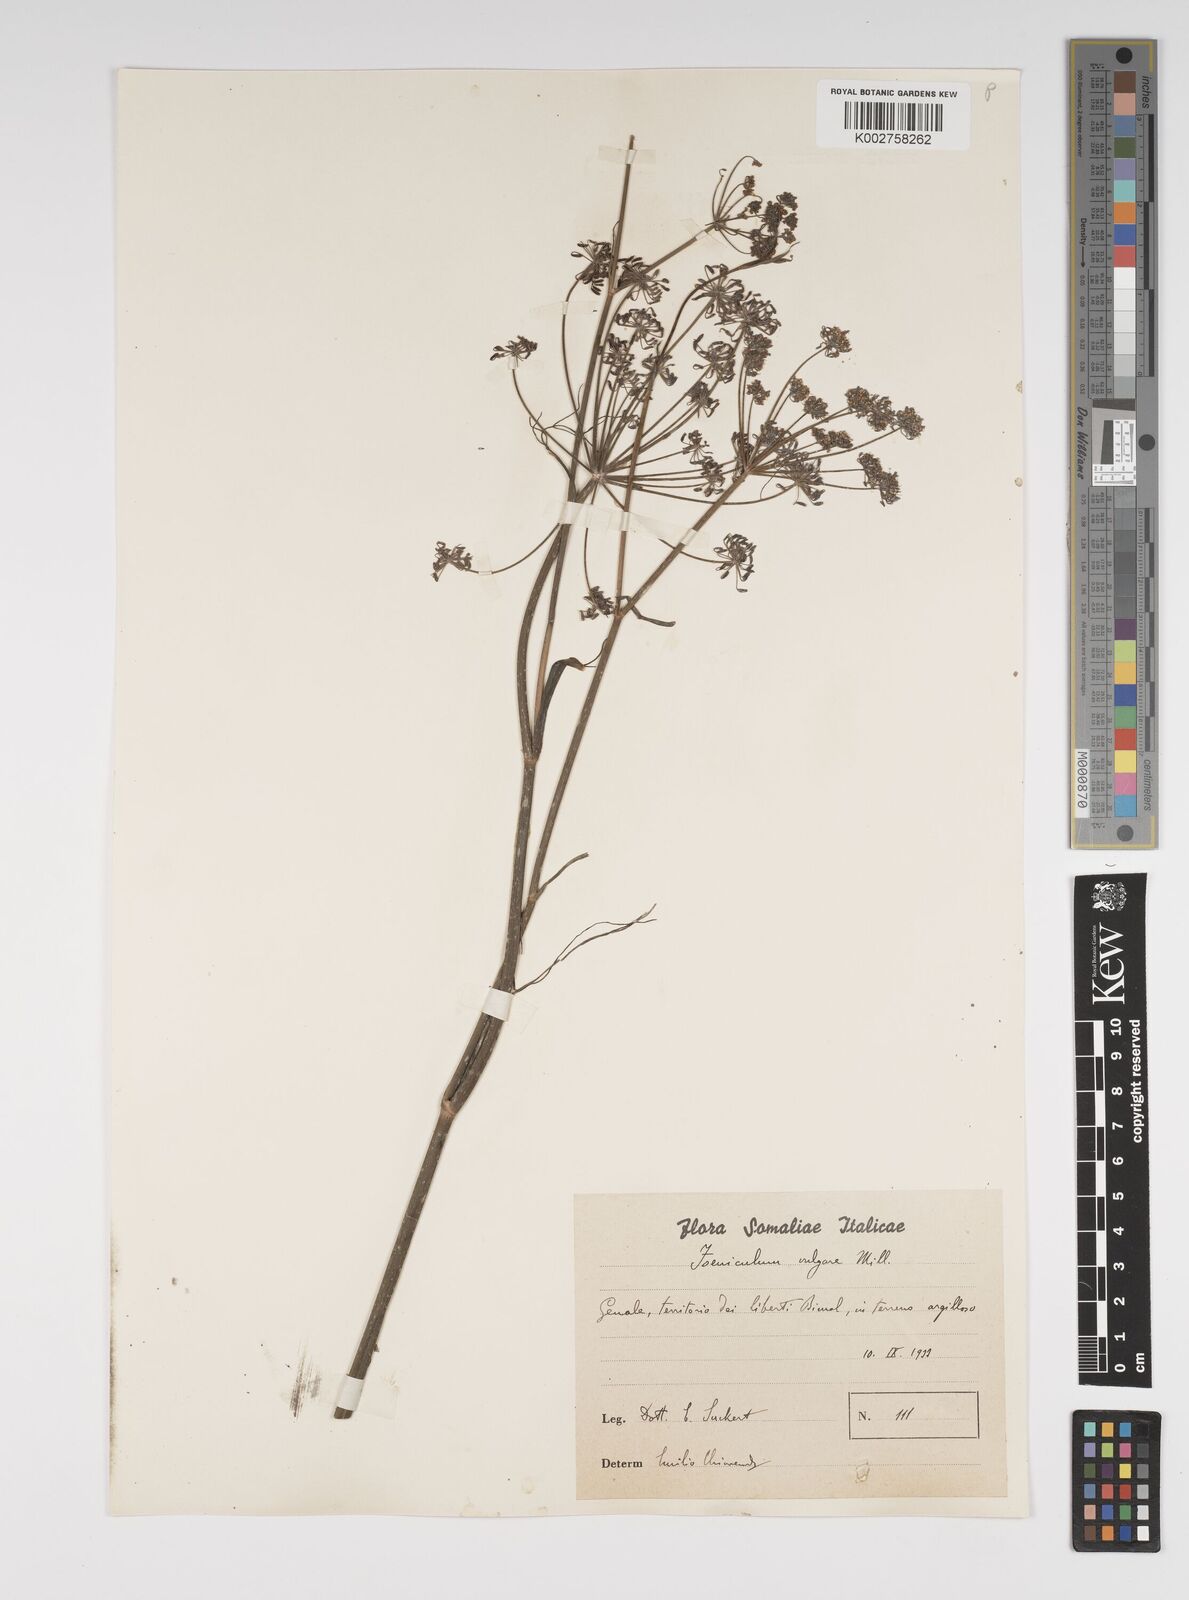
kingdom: Plantae
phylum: Tracheophyta
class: Magnoliopsida
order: Apiales
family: Apiaceae
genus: Foeniculum
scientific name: Foeniculum vulgare
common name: Fennel
